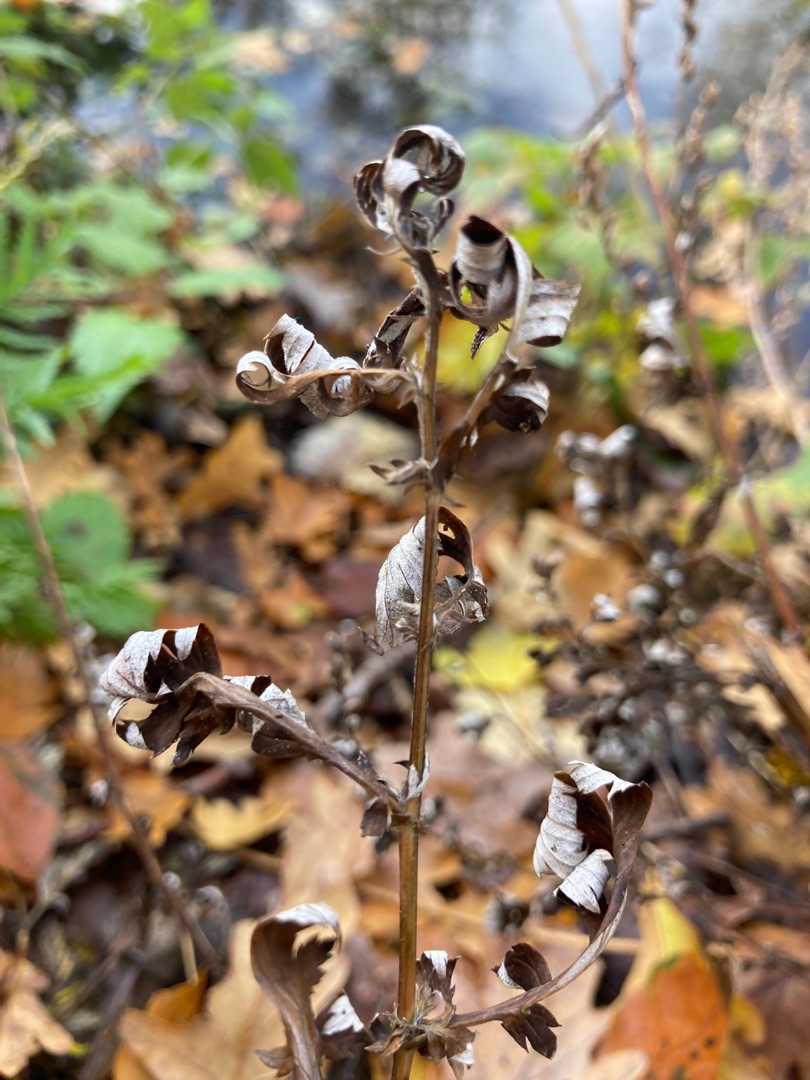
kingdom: Plantae
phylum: Tracheophyta
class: Magnoliopsida
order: Asterales
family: Asteraceae
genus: Artemisia
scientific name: Artemisia vulgaris
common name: Grå-bynke
